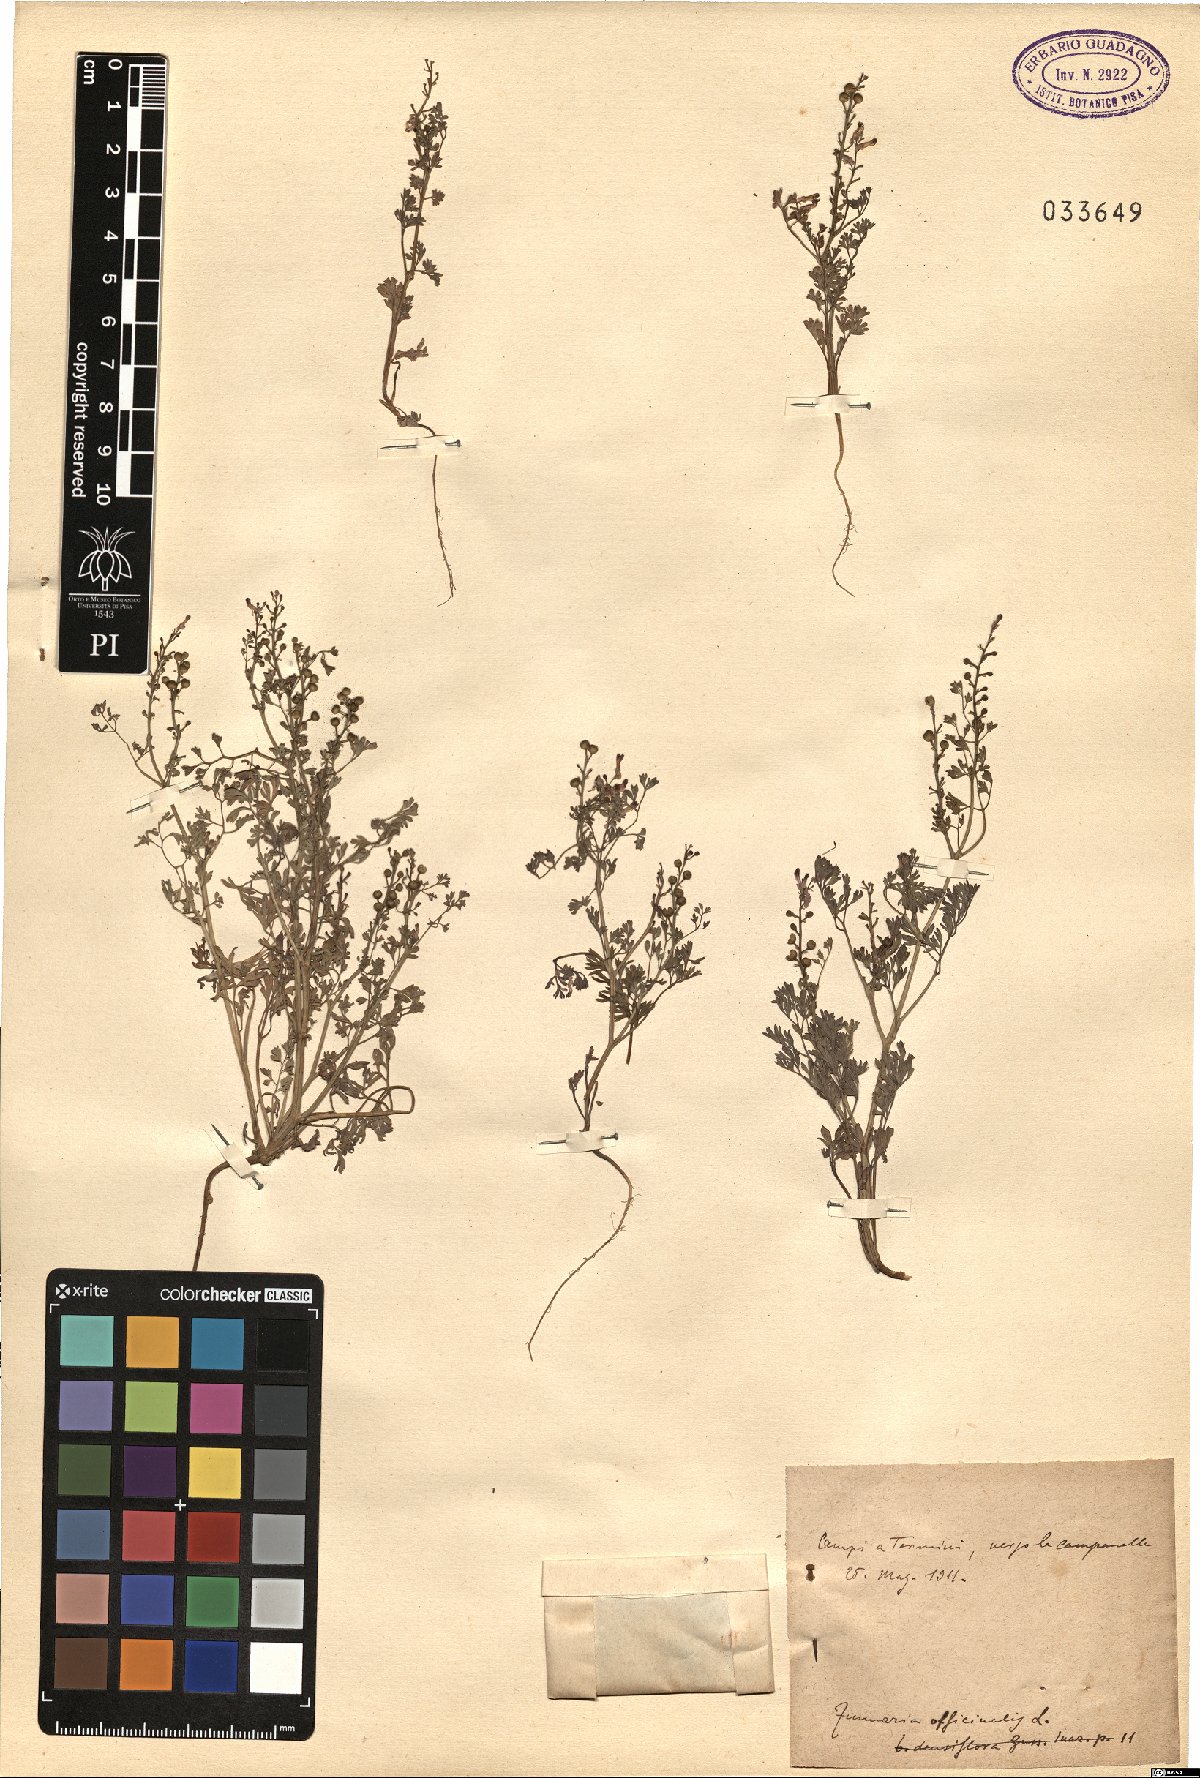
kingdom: Plantae
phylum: Tracheophyta
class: Magnoliopsida
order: Ranunculales
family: Papaveraceae
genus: Fumaria
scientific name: Fumaria officinalis
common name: Common fumitory
